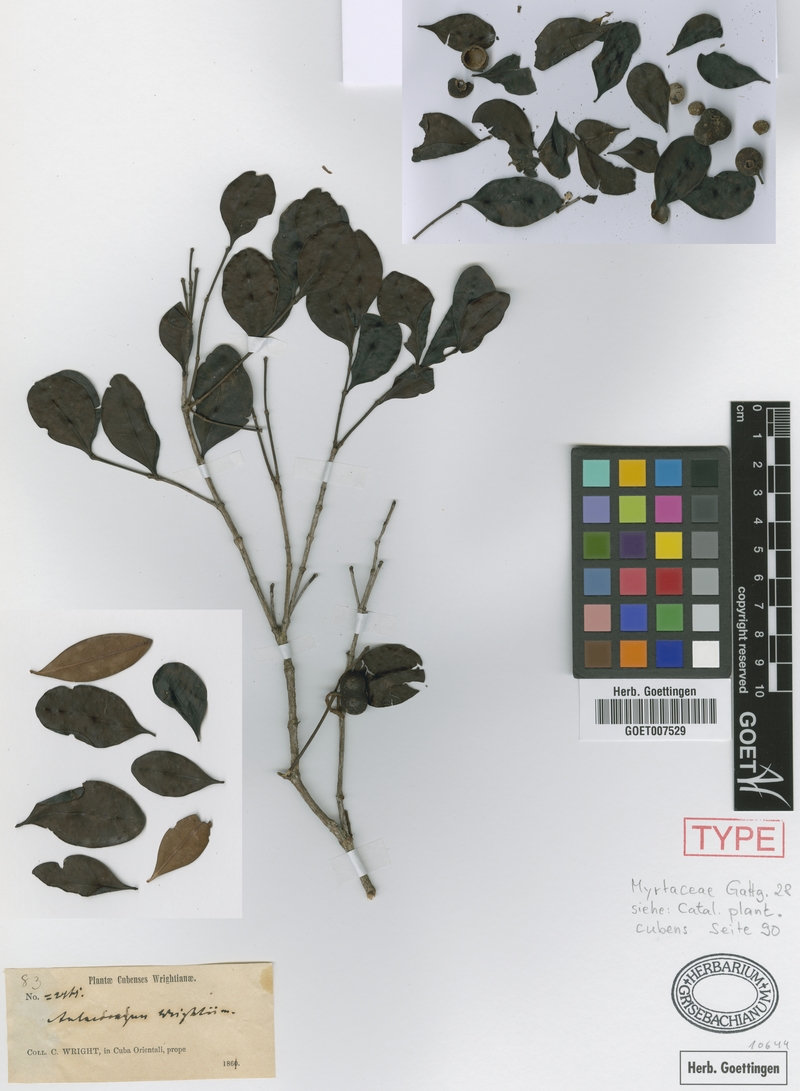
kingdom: Plantae
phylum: Tracheophyta
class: Magnoliopsida
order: Myrtales
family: Melastomataceae
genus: Mouriri
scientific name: Mouriri spathulata
